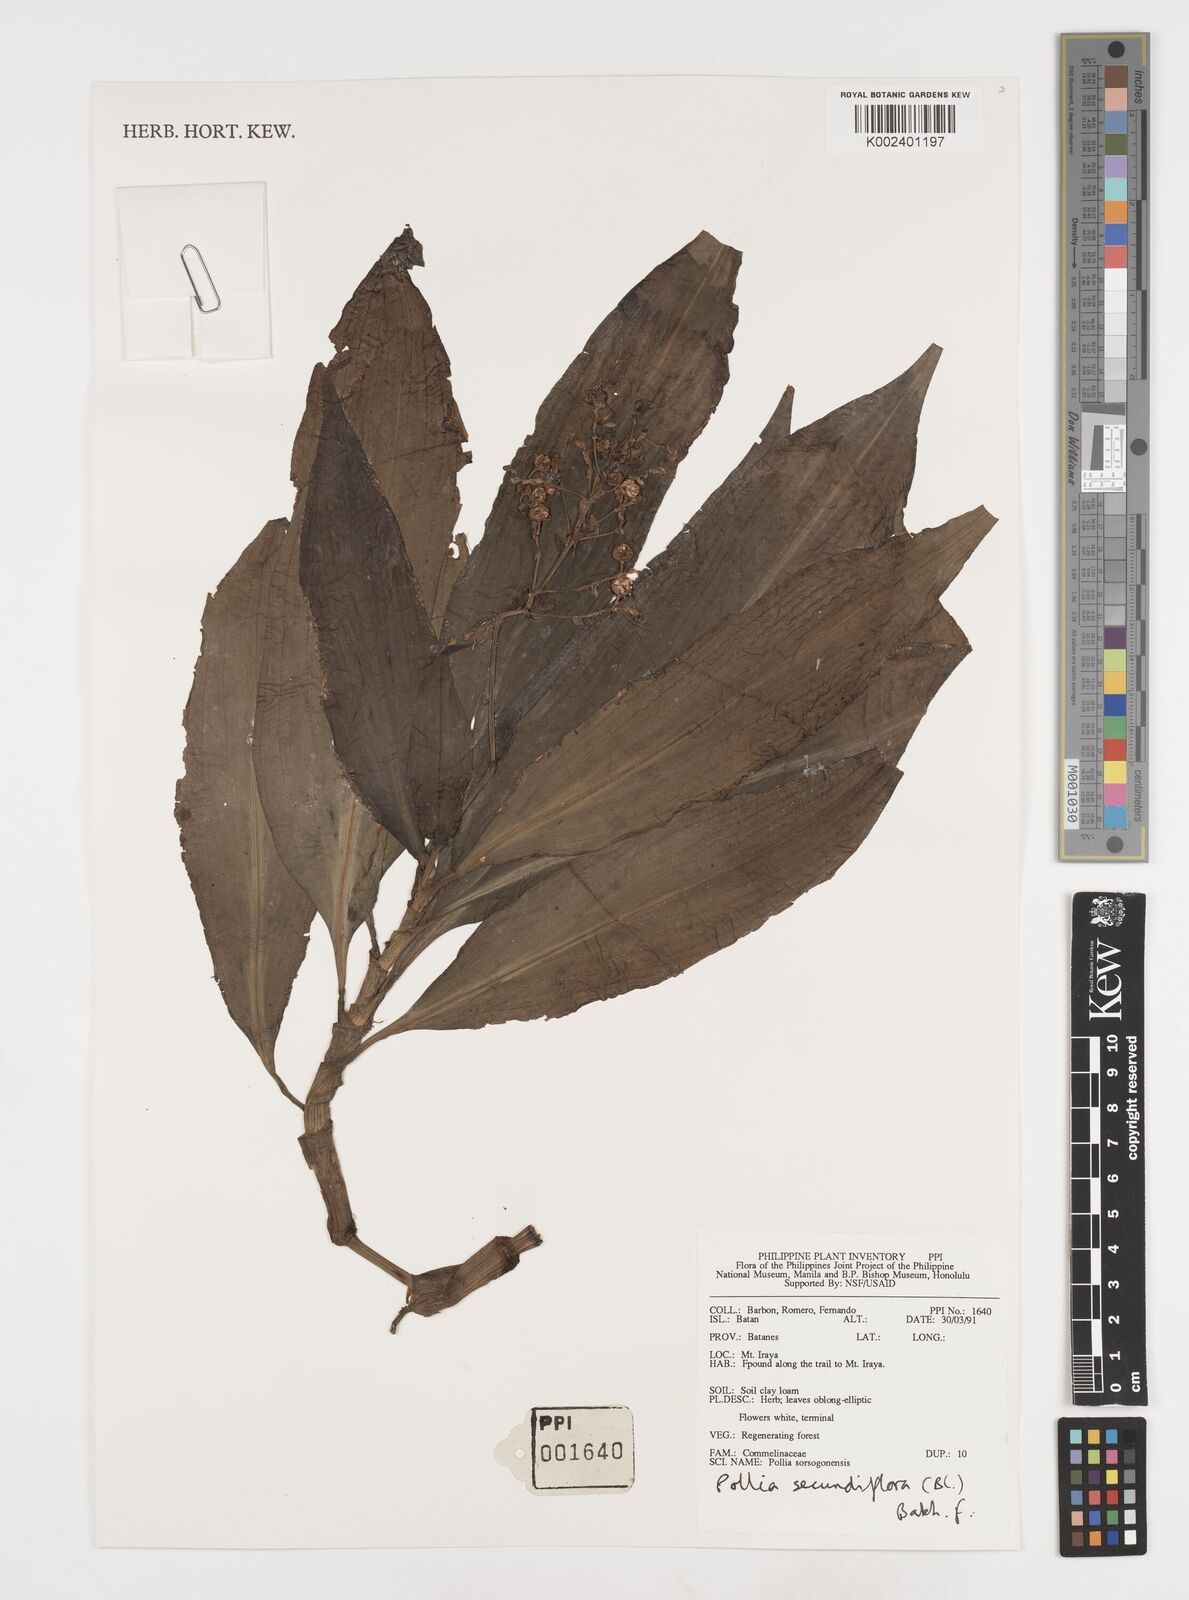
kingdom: Plantae
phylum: Tracheophyta
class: Liliopsida
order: Commelinales
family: Commelinaceae
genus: Pollia
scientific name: Pollia secundiflora
